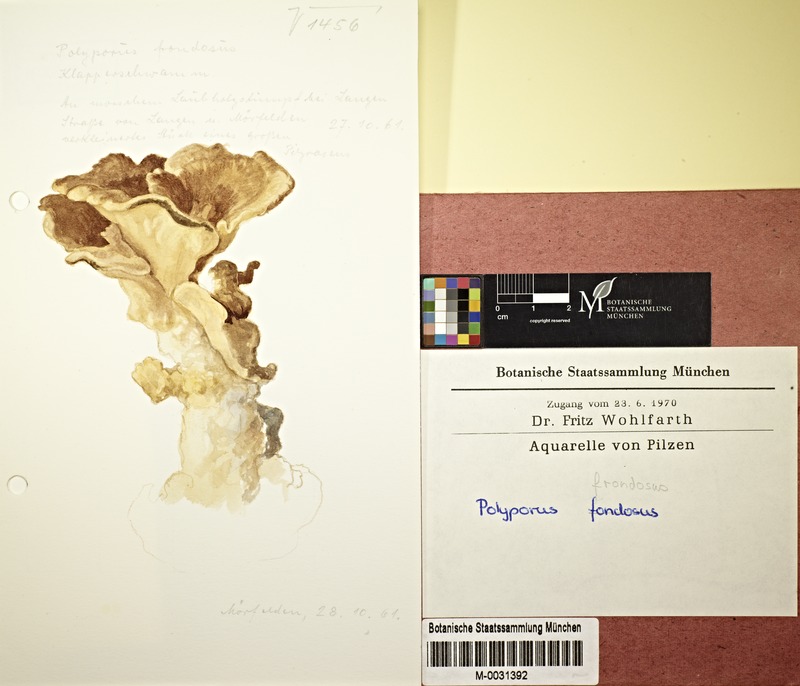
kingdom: Fungi
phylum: Basidiomycota
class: Agaricomycetes
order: Polyporales
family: Grifolaceae
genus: Grifola
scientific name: Grifola frondosa
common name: Hen of the woods
